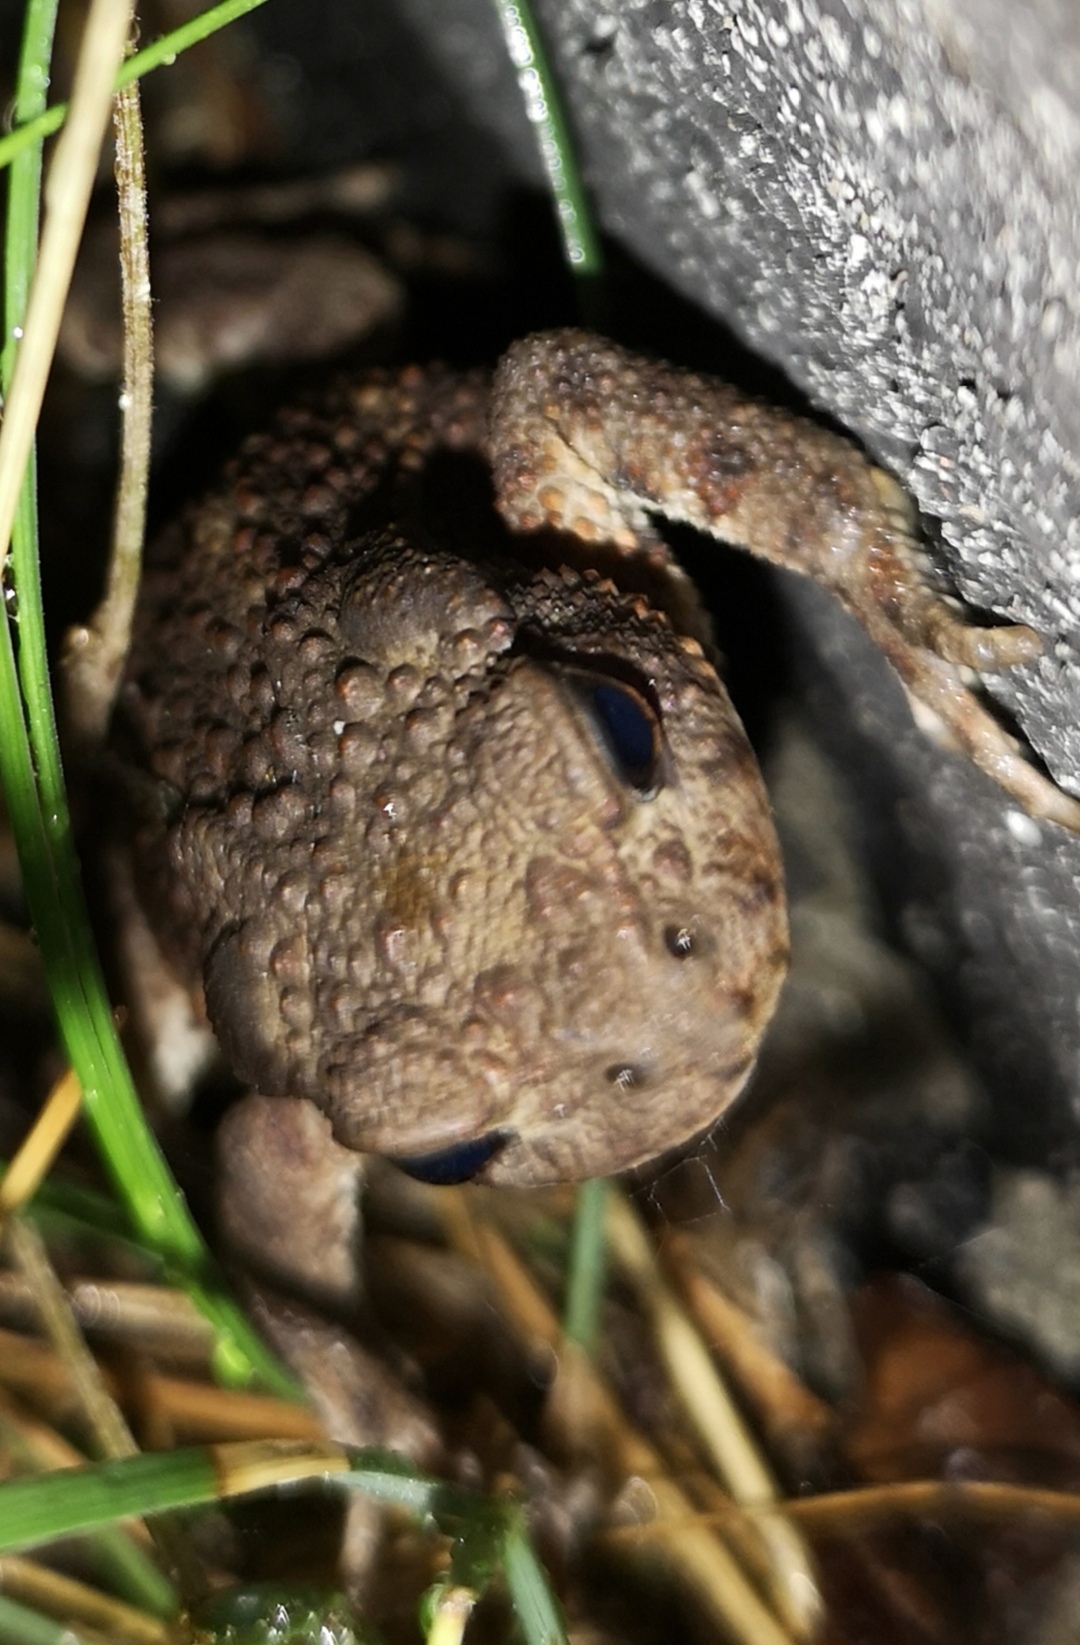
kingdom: Animalia
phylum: Chordata
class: Amphibia
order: Anura
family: Bufonidae
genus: Bufo
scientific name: Bufo bufo
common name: Skrubtudse
